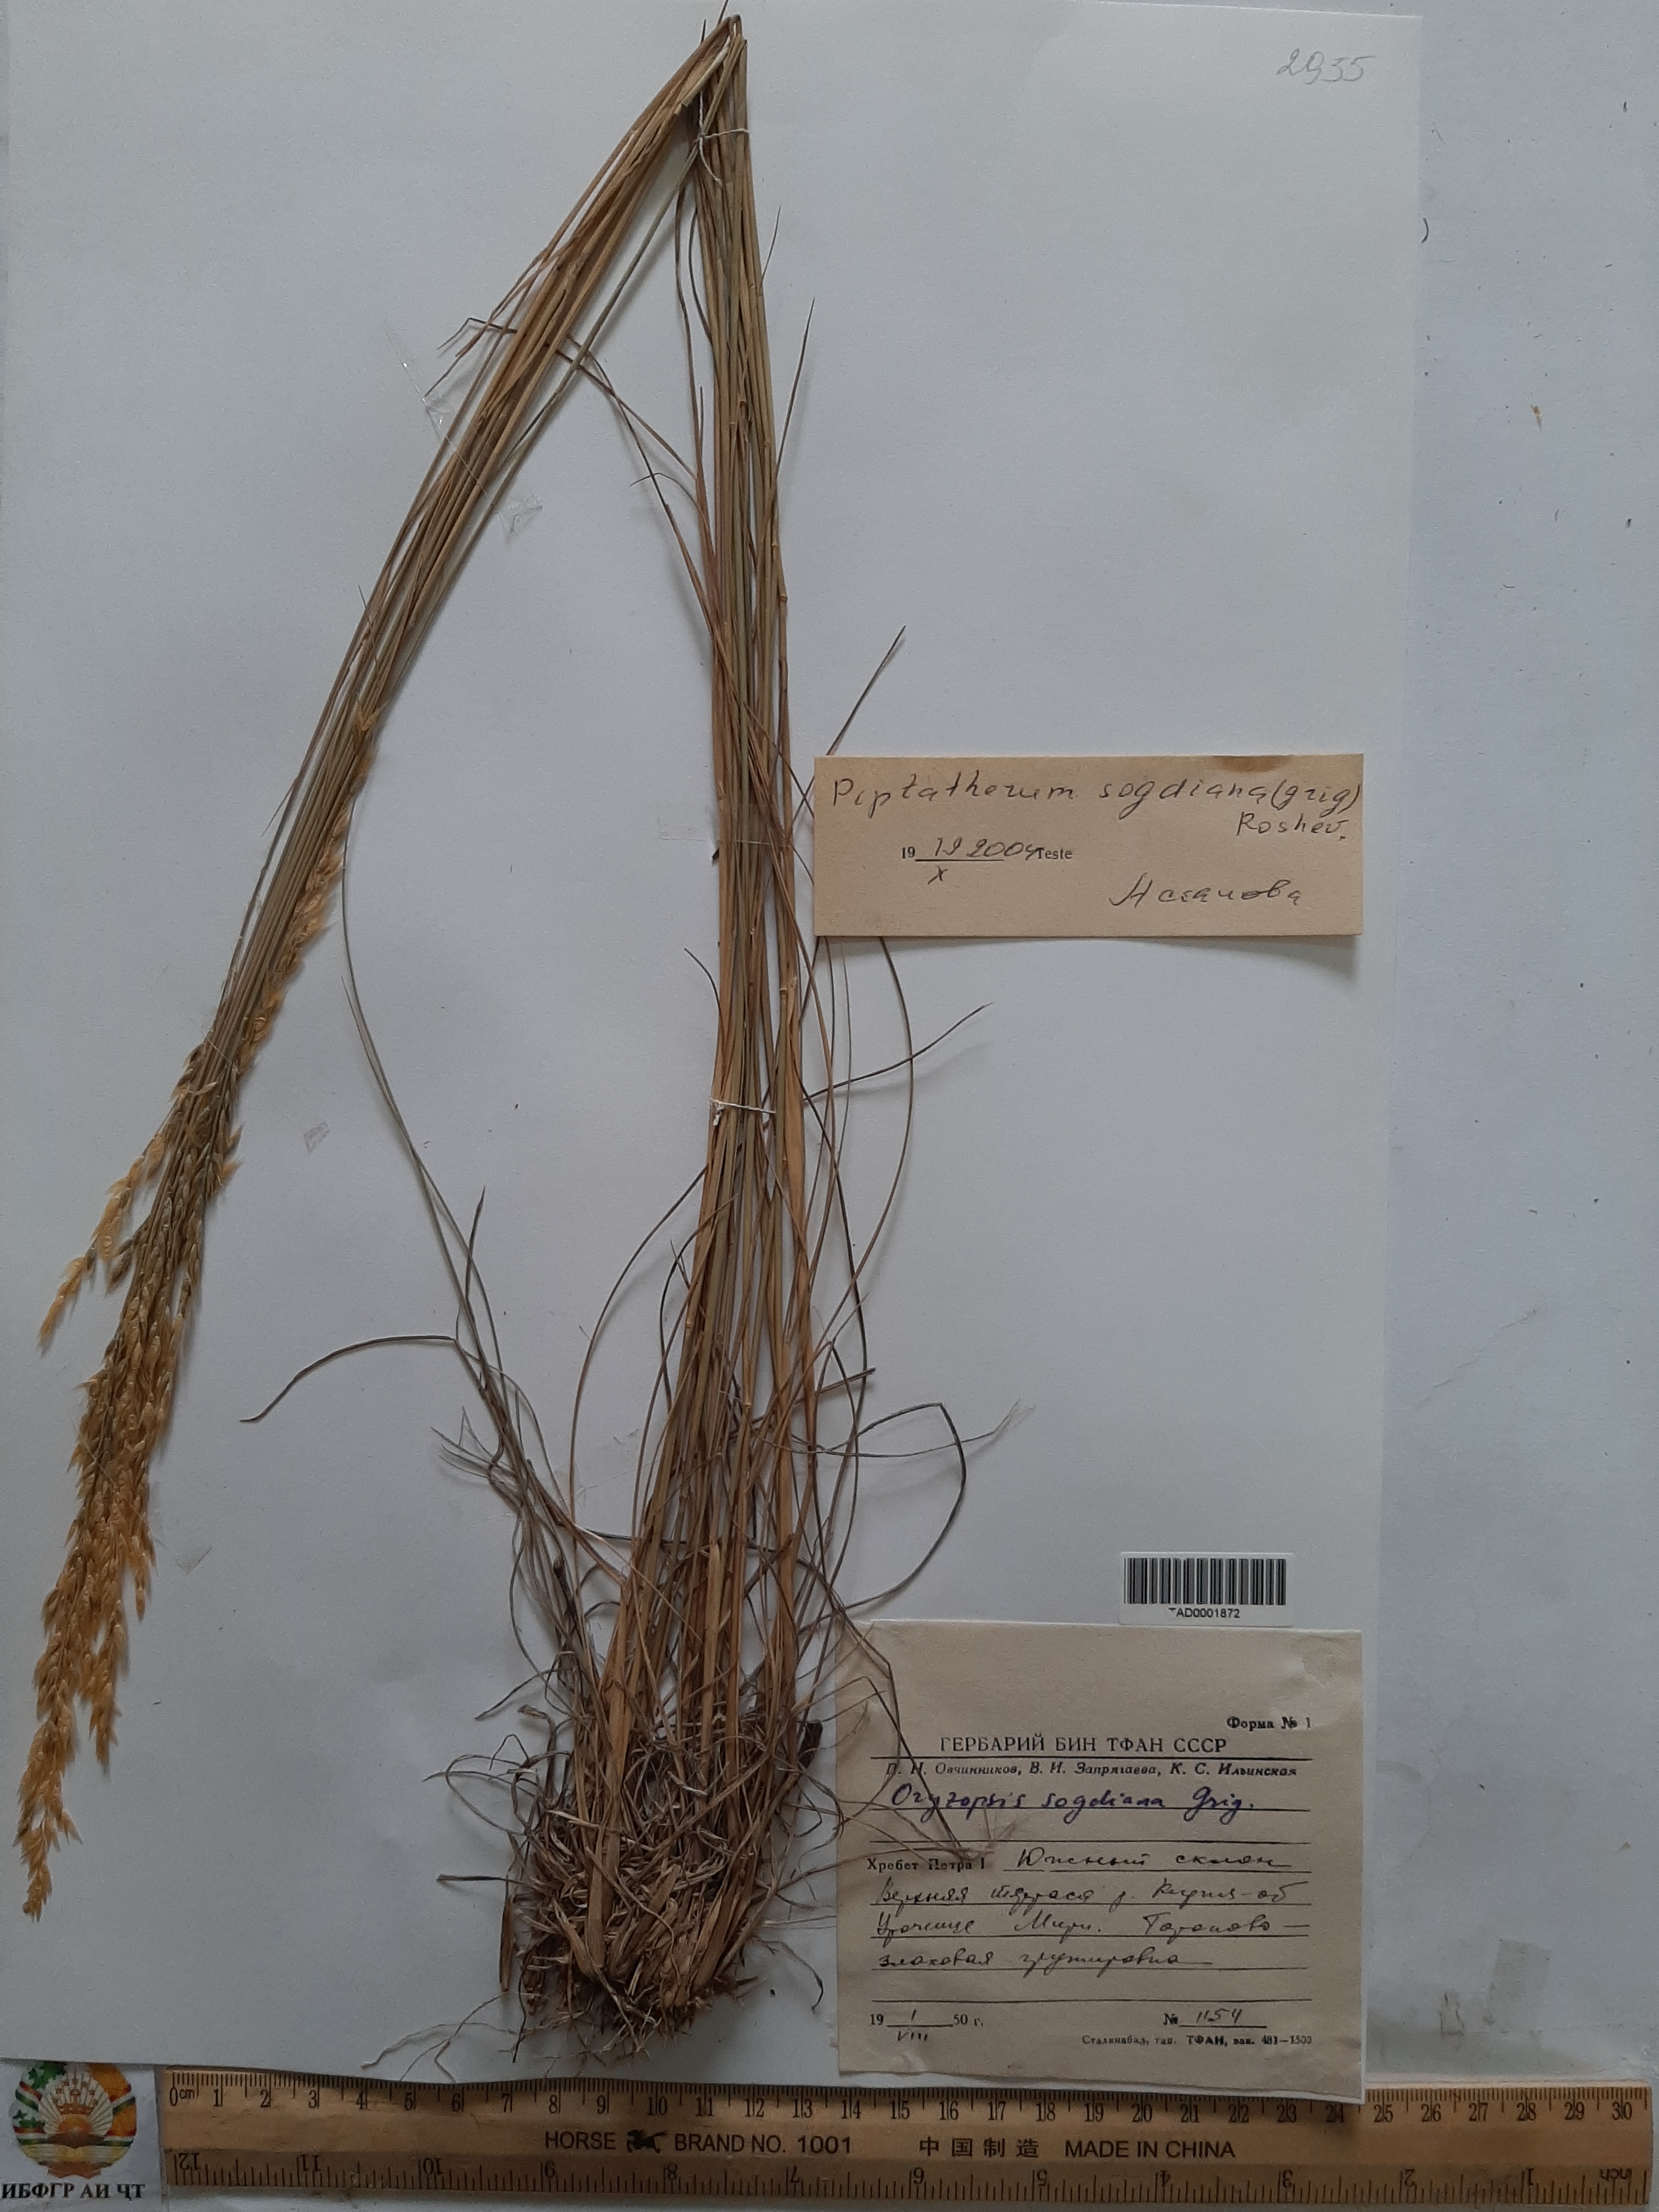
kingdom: Plantae
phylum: Tracheophyta
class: Liliopsida
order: Poales
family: Poaceae
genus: Piptatherum
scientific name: Piptatherum sogdianum
